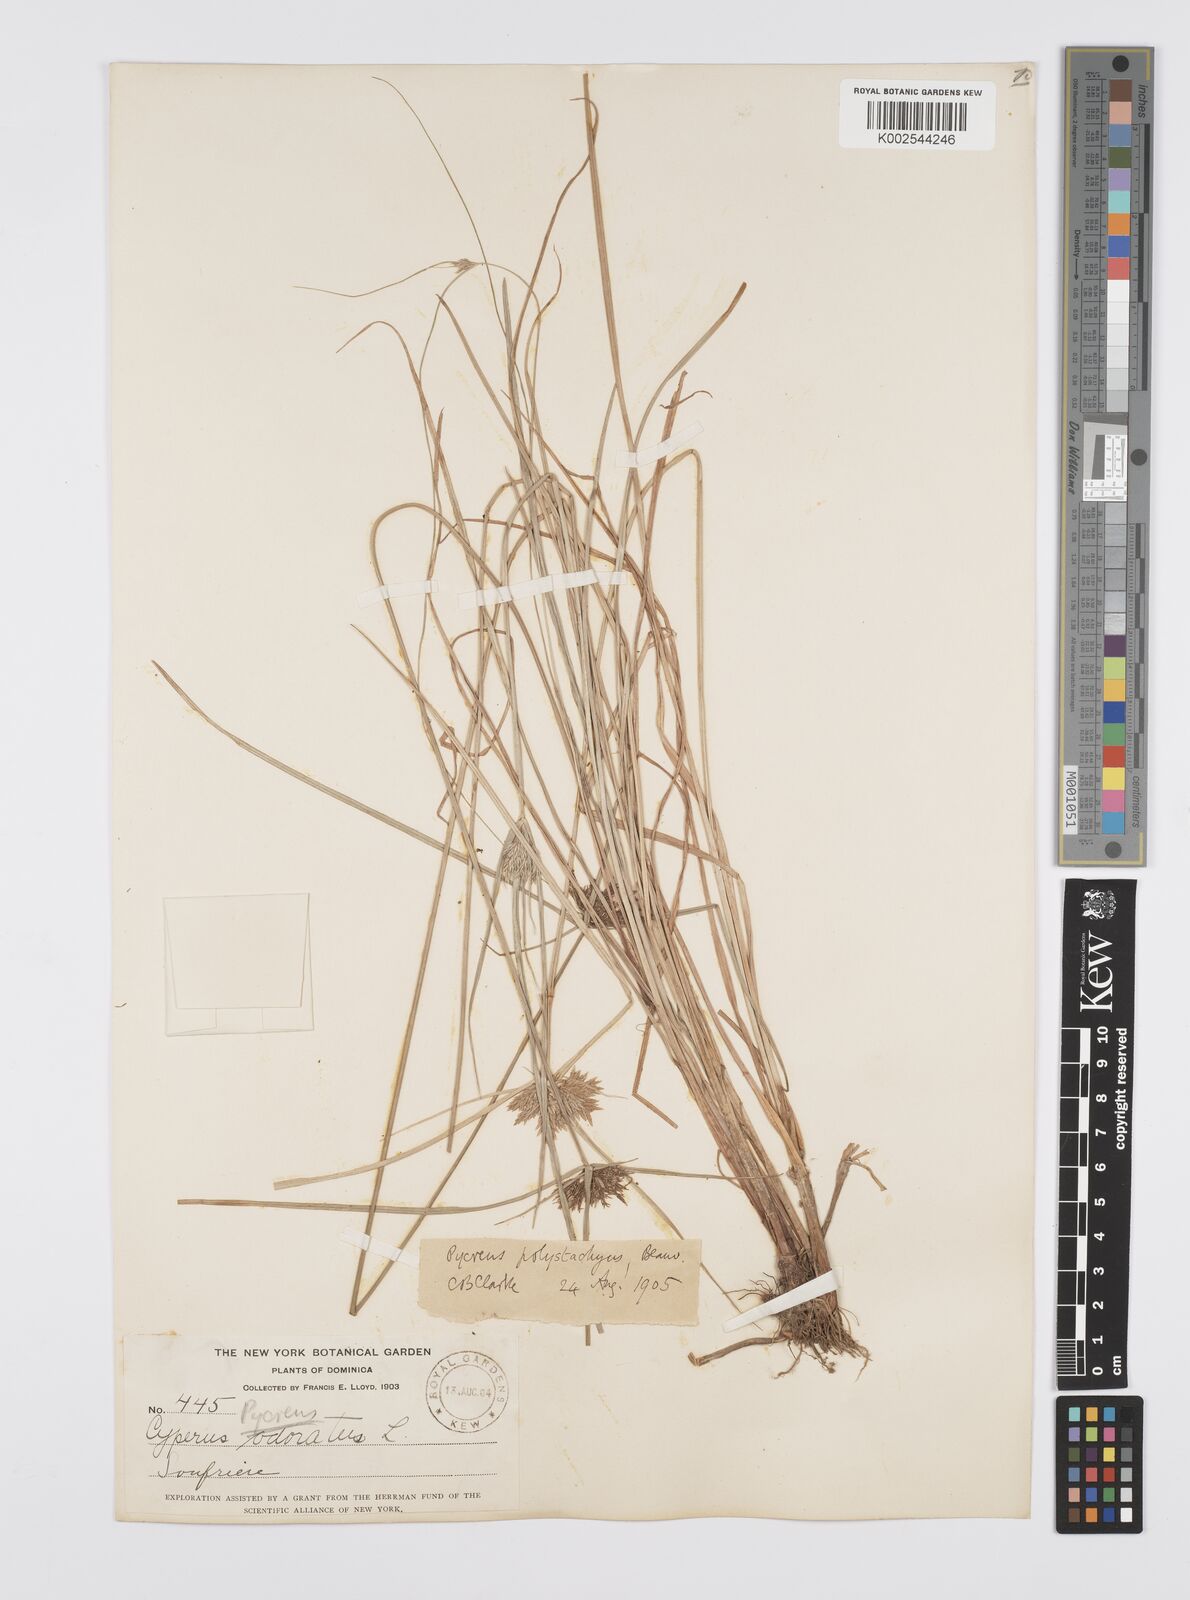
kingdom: Plantae
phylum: Tracheophyta
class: Liliopsida
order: Poales
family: Cyperaceae
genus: Cyperus
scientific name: Cyperus polystachyos
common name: Bunchy flat sedge
